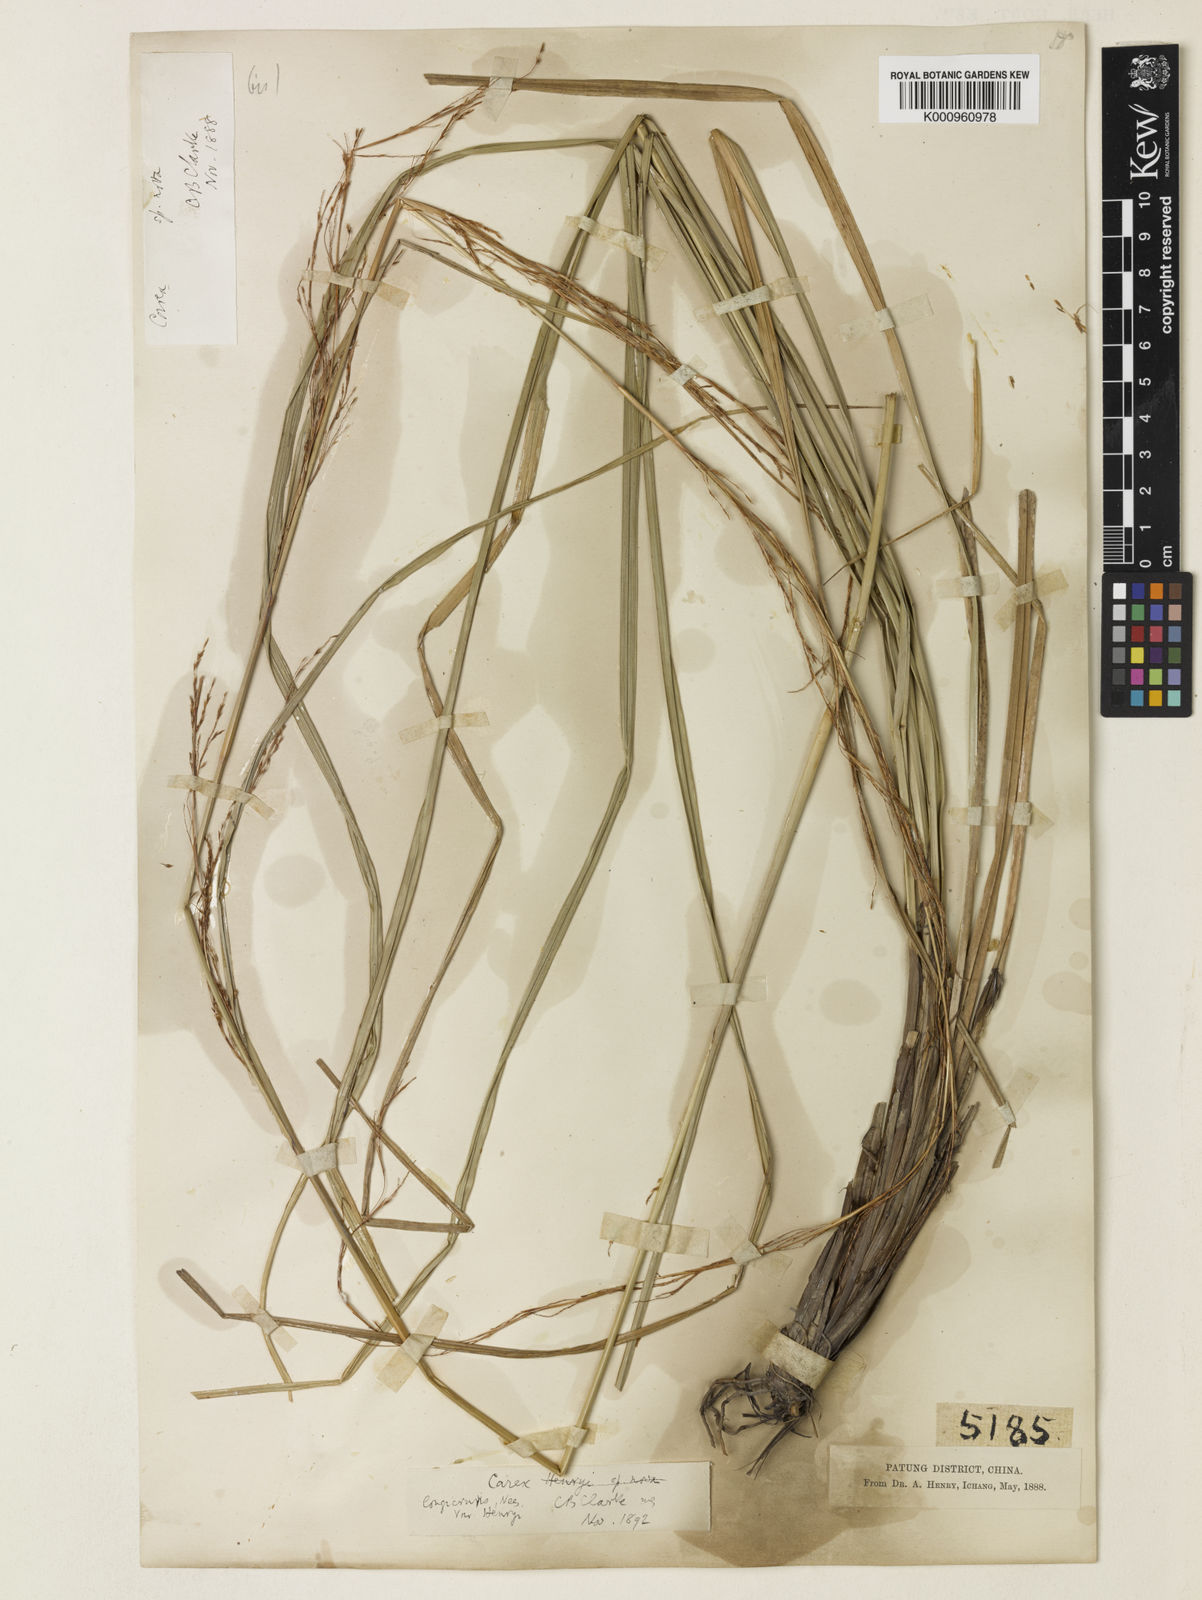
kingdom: Plantae
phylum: Tracheophyta
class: Liliopsida
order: Poales
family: Cyperaceae
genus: Carex
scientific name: Carex longicruris
